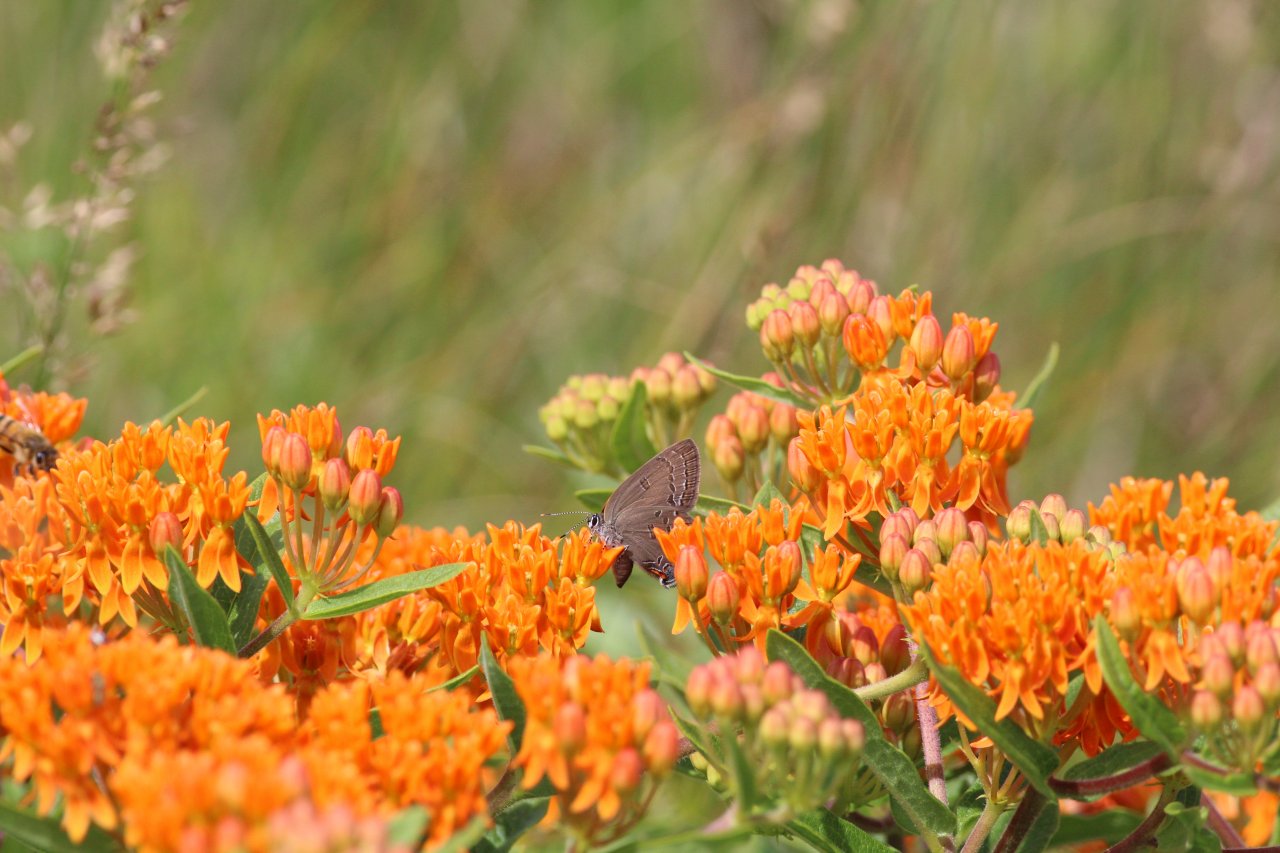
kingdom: Animalia
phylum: Arthropoda
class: Insecta
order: Lepidoptera
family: Lycaenidae
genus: Satyrium
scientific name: Satyrium edwardsii
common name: Edwards' Hairstreak
